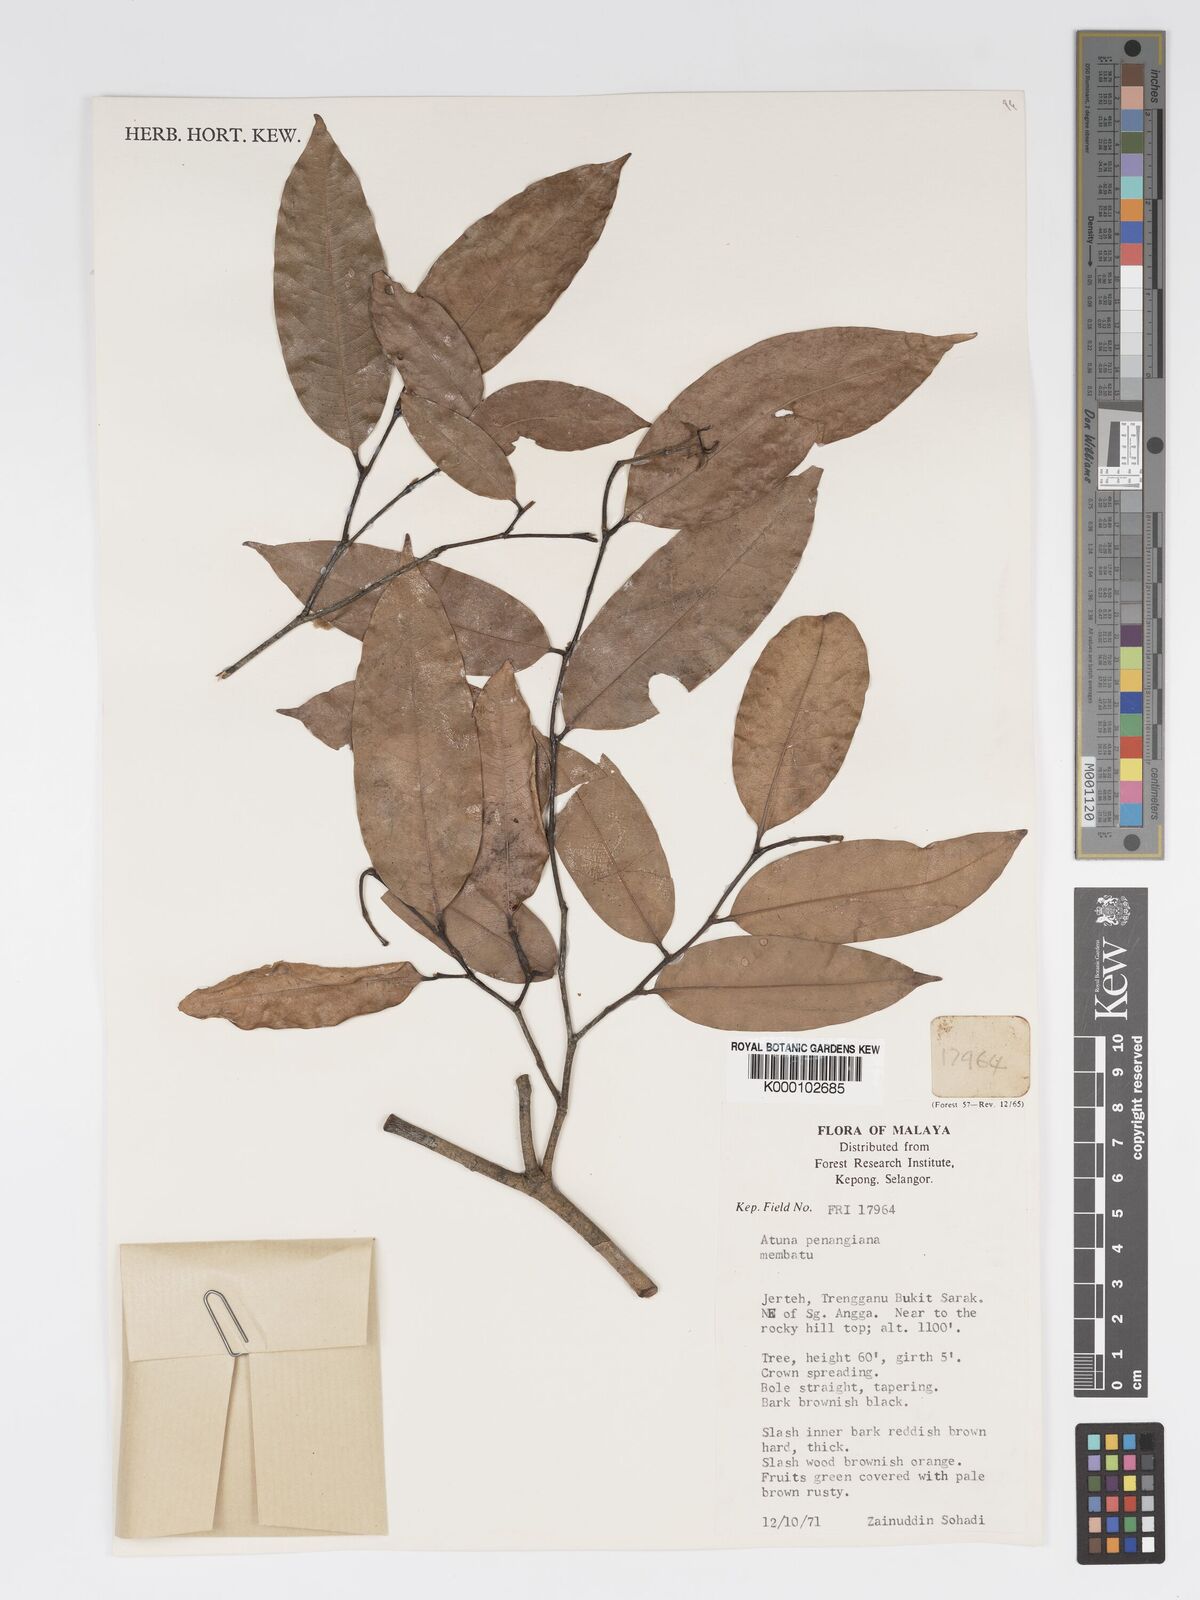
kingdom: Plantae
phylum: Tracheophyta
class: Magnoliopsida
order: Malpighiales
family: Chrysobalanaceae
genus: Atuna
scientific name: Atuna penangiana
